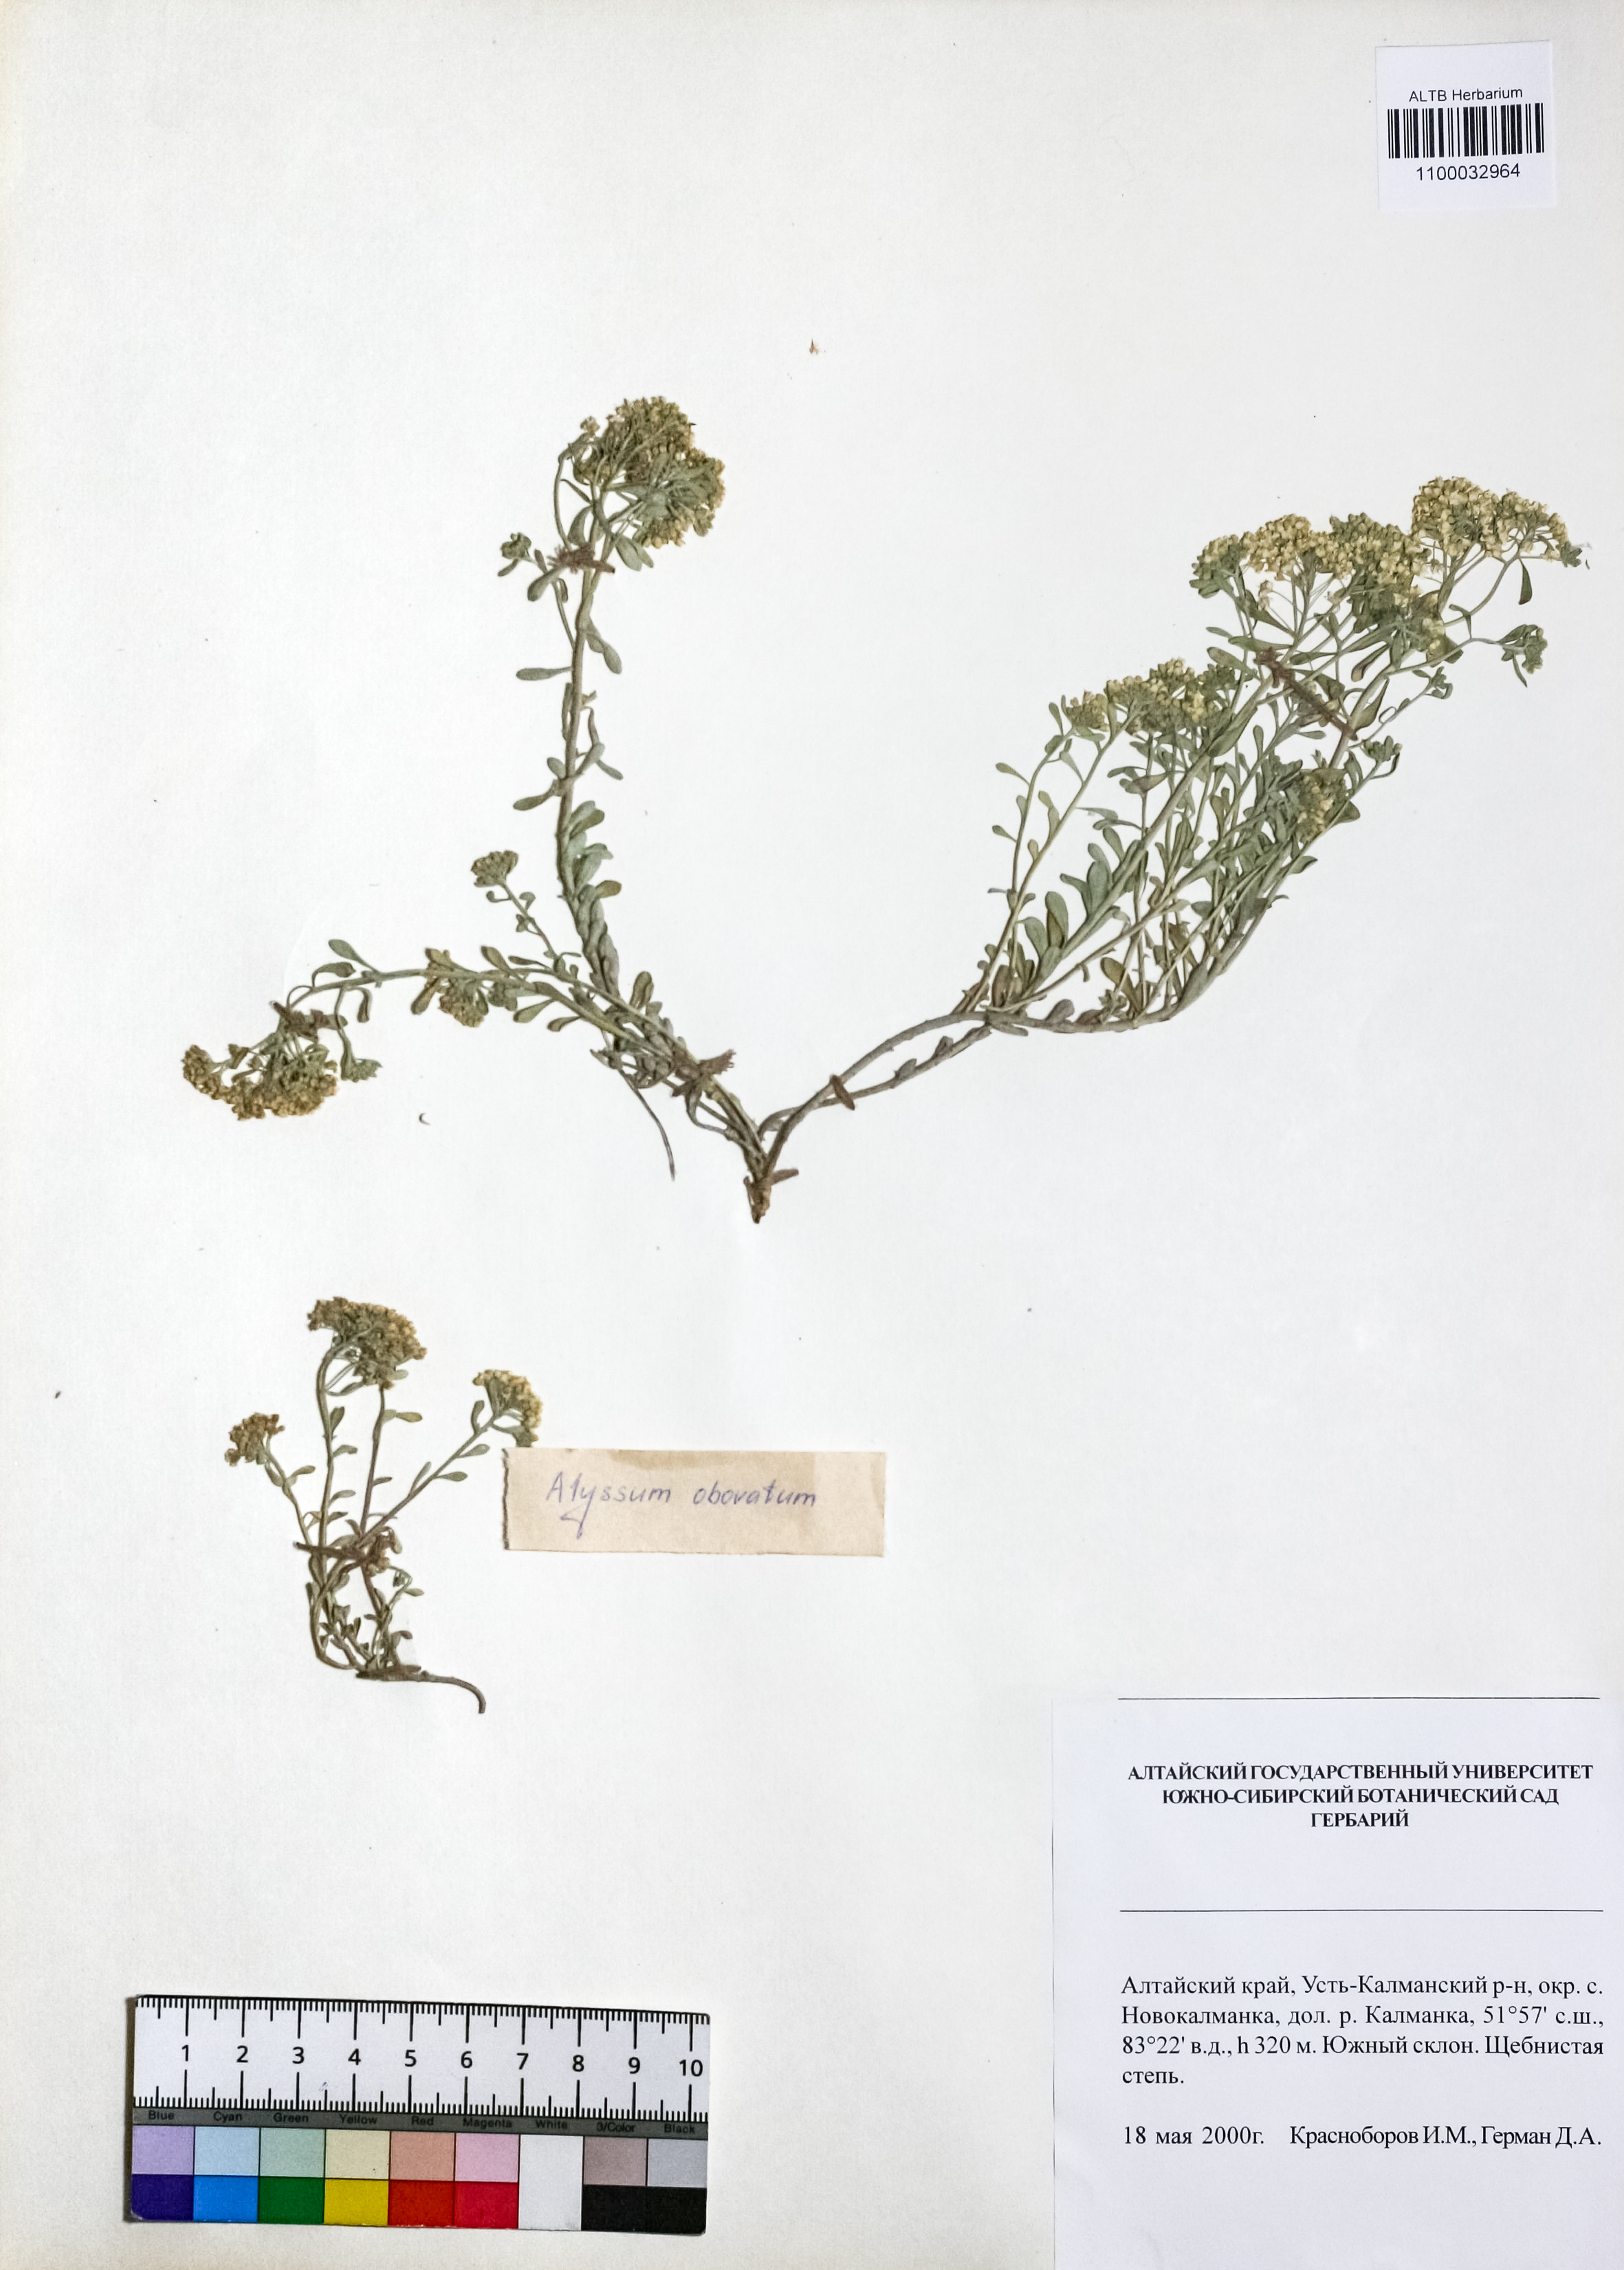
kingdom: Plantae
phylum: Tracheophyta
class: Magnoliopsida
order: Brassicales
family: Brassicaceae
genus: Odontarrhena
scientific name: Odontarrhena obovata
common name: American alyssum
